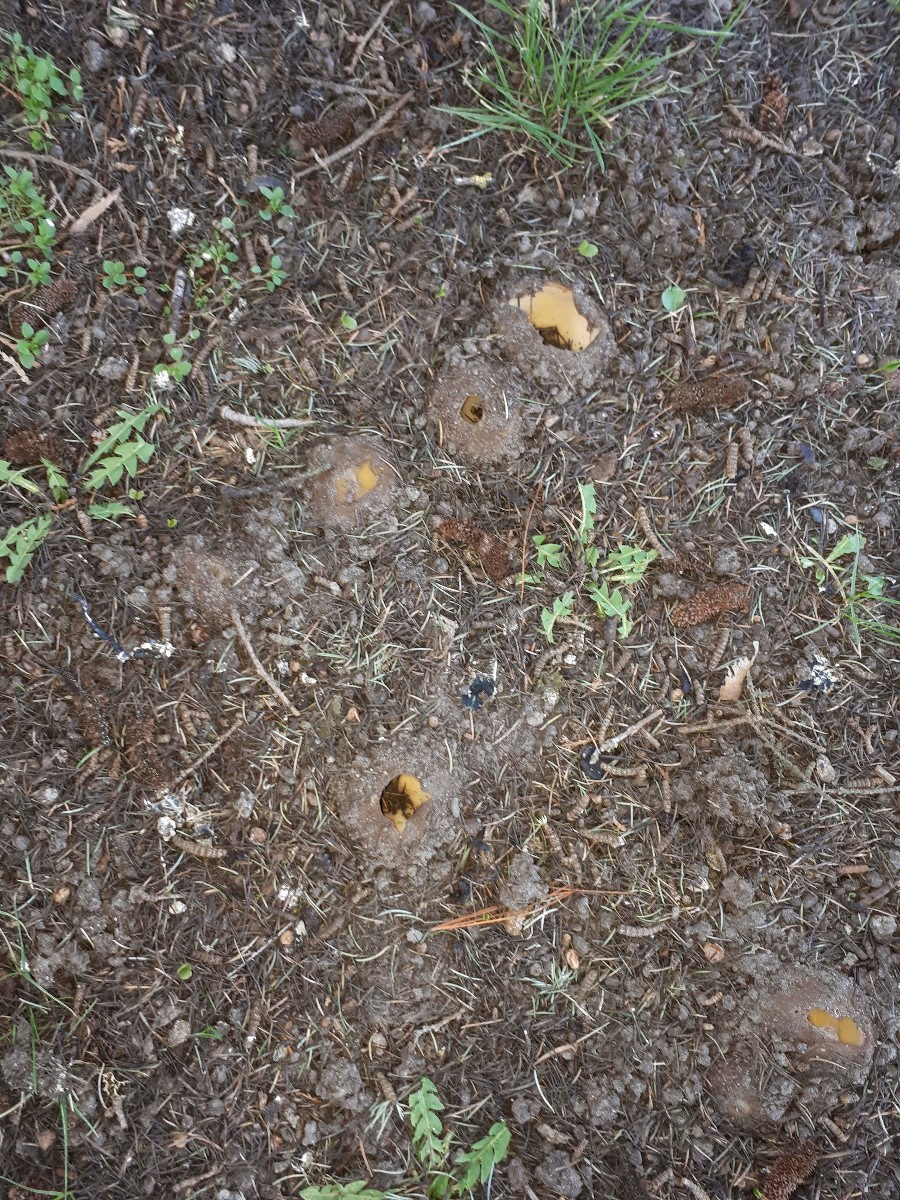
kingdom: Fungi
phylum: Ascomycota
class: Pezizomycetes
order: Pezizales
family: Pyronemataceae
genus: Geopora
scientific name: Geopora sumneriana
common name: vår-jordbæger
